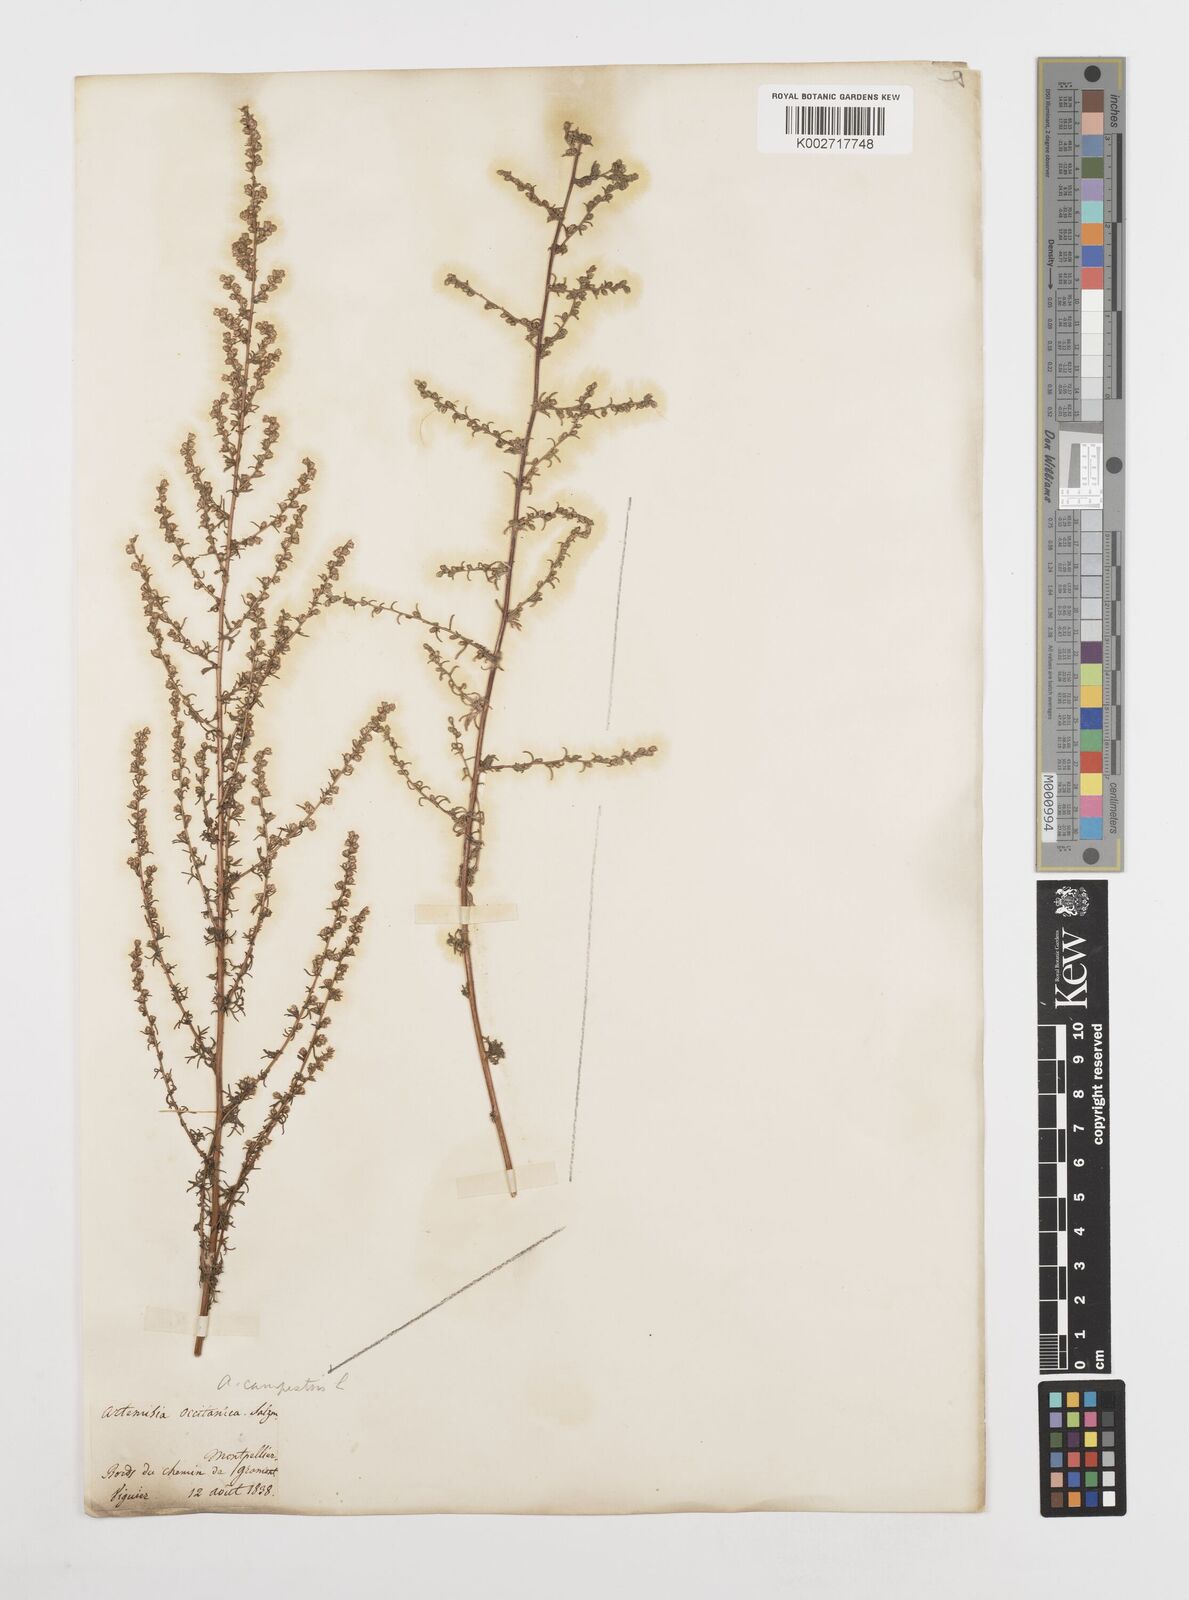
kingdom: Plantae
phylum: Tracheophyta
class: Magnoliopsida
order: Asterales
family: Asteraceae
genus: Artemisia
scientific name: Artemisia campestris
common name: Field wormwood
